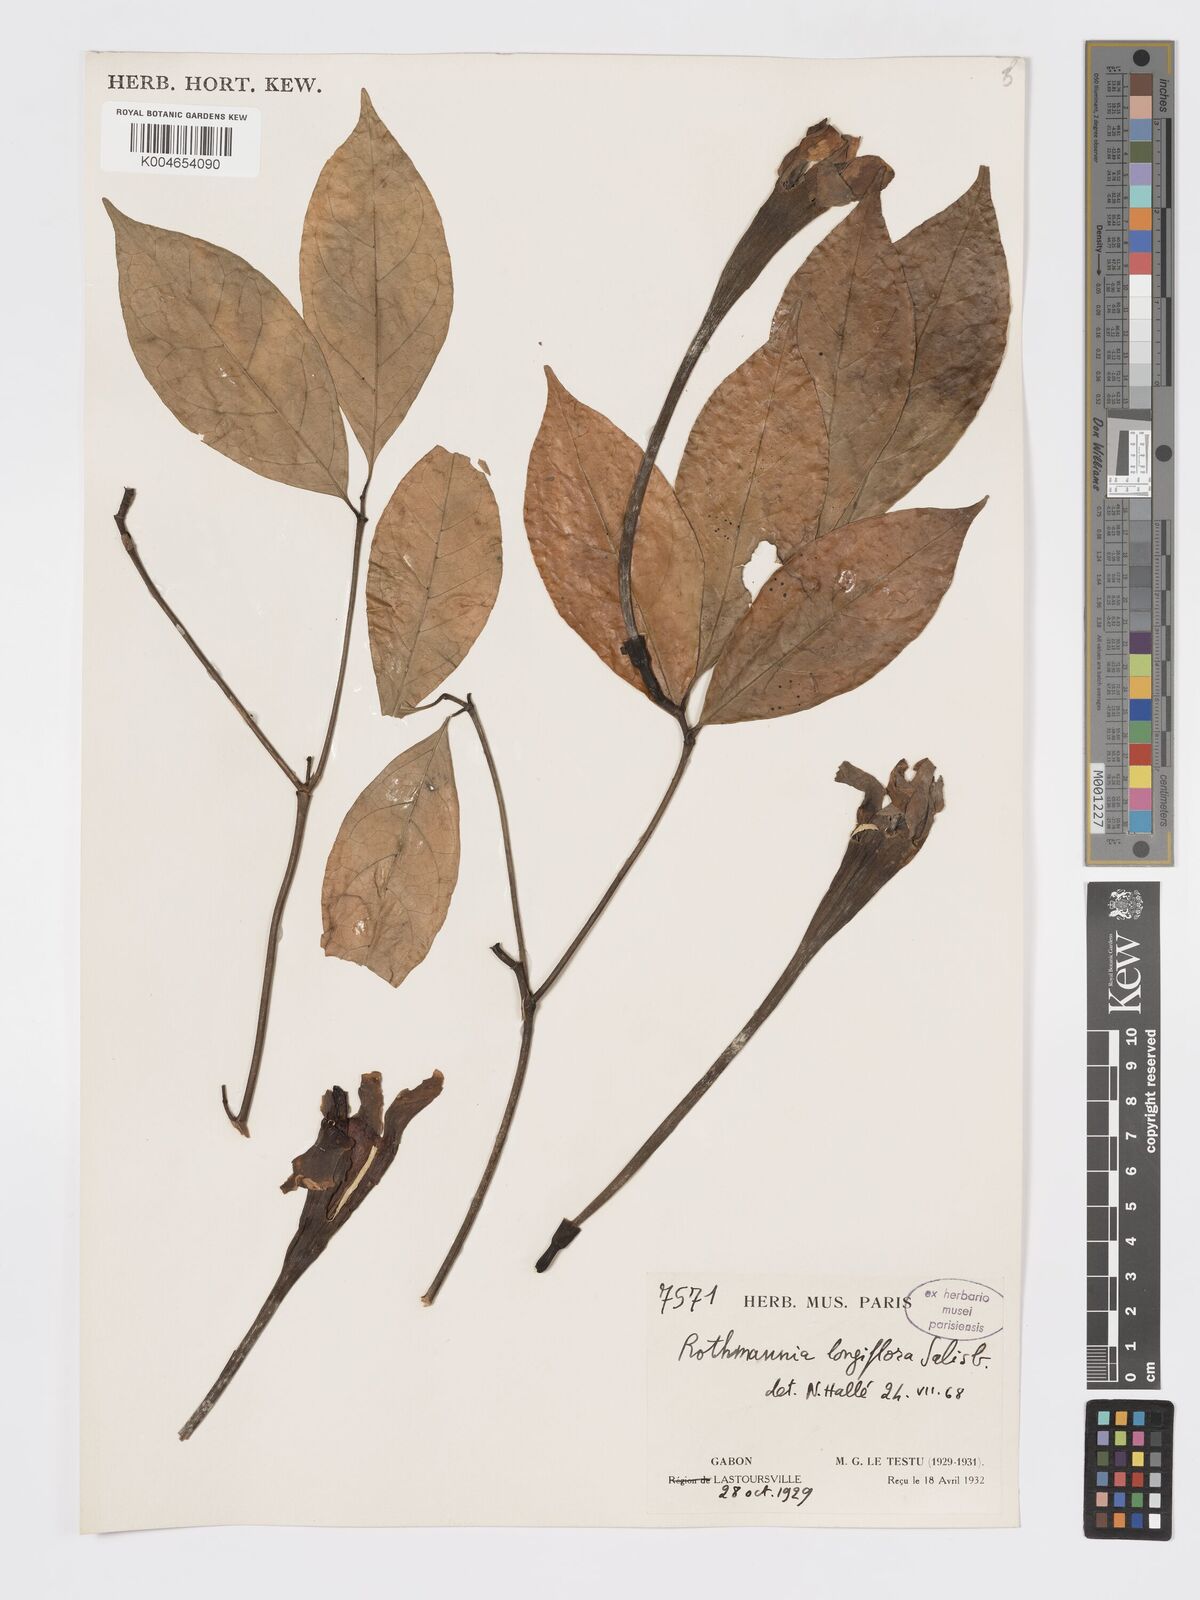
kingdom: Plantae
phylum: Tracheophyta
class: Magnoliopsida
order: Gentianales
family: Rubiaceae
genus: Rothmannia
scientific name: Rothmannia longiflora
